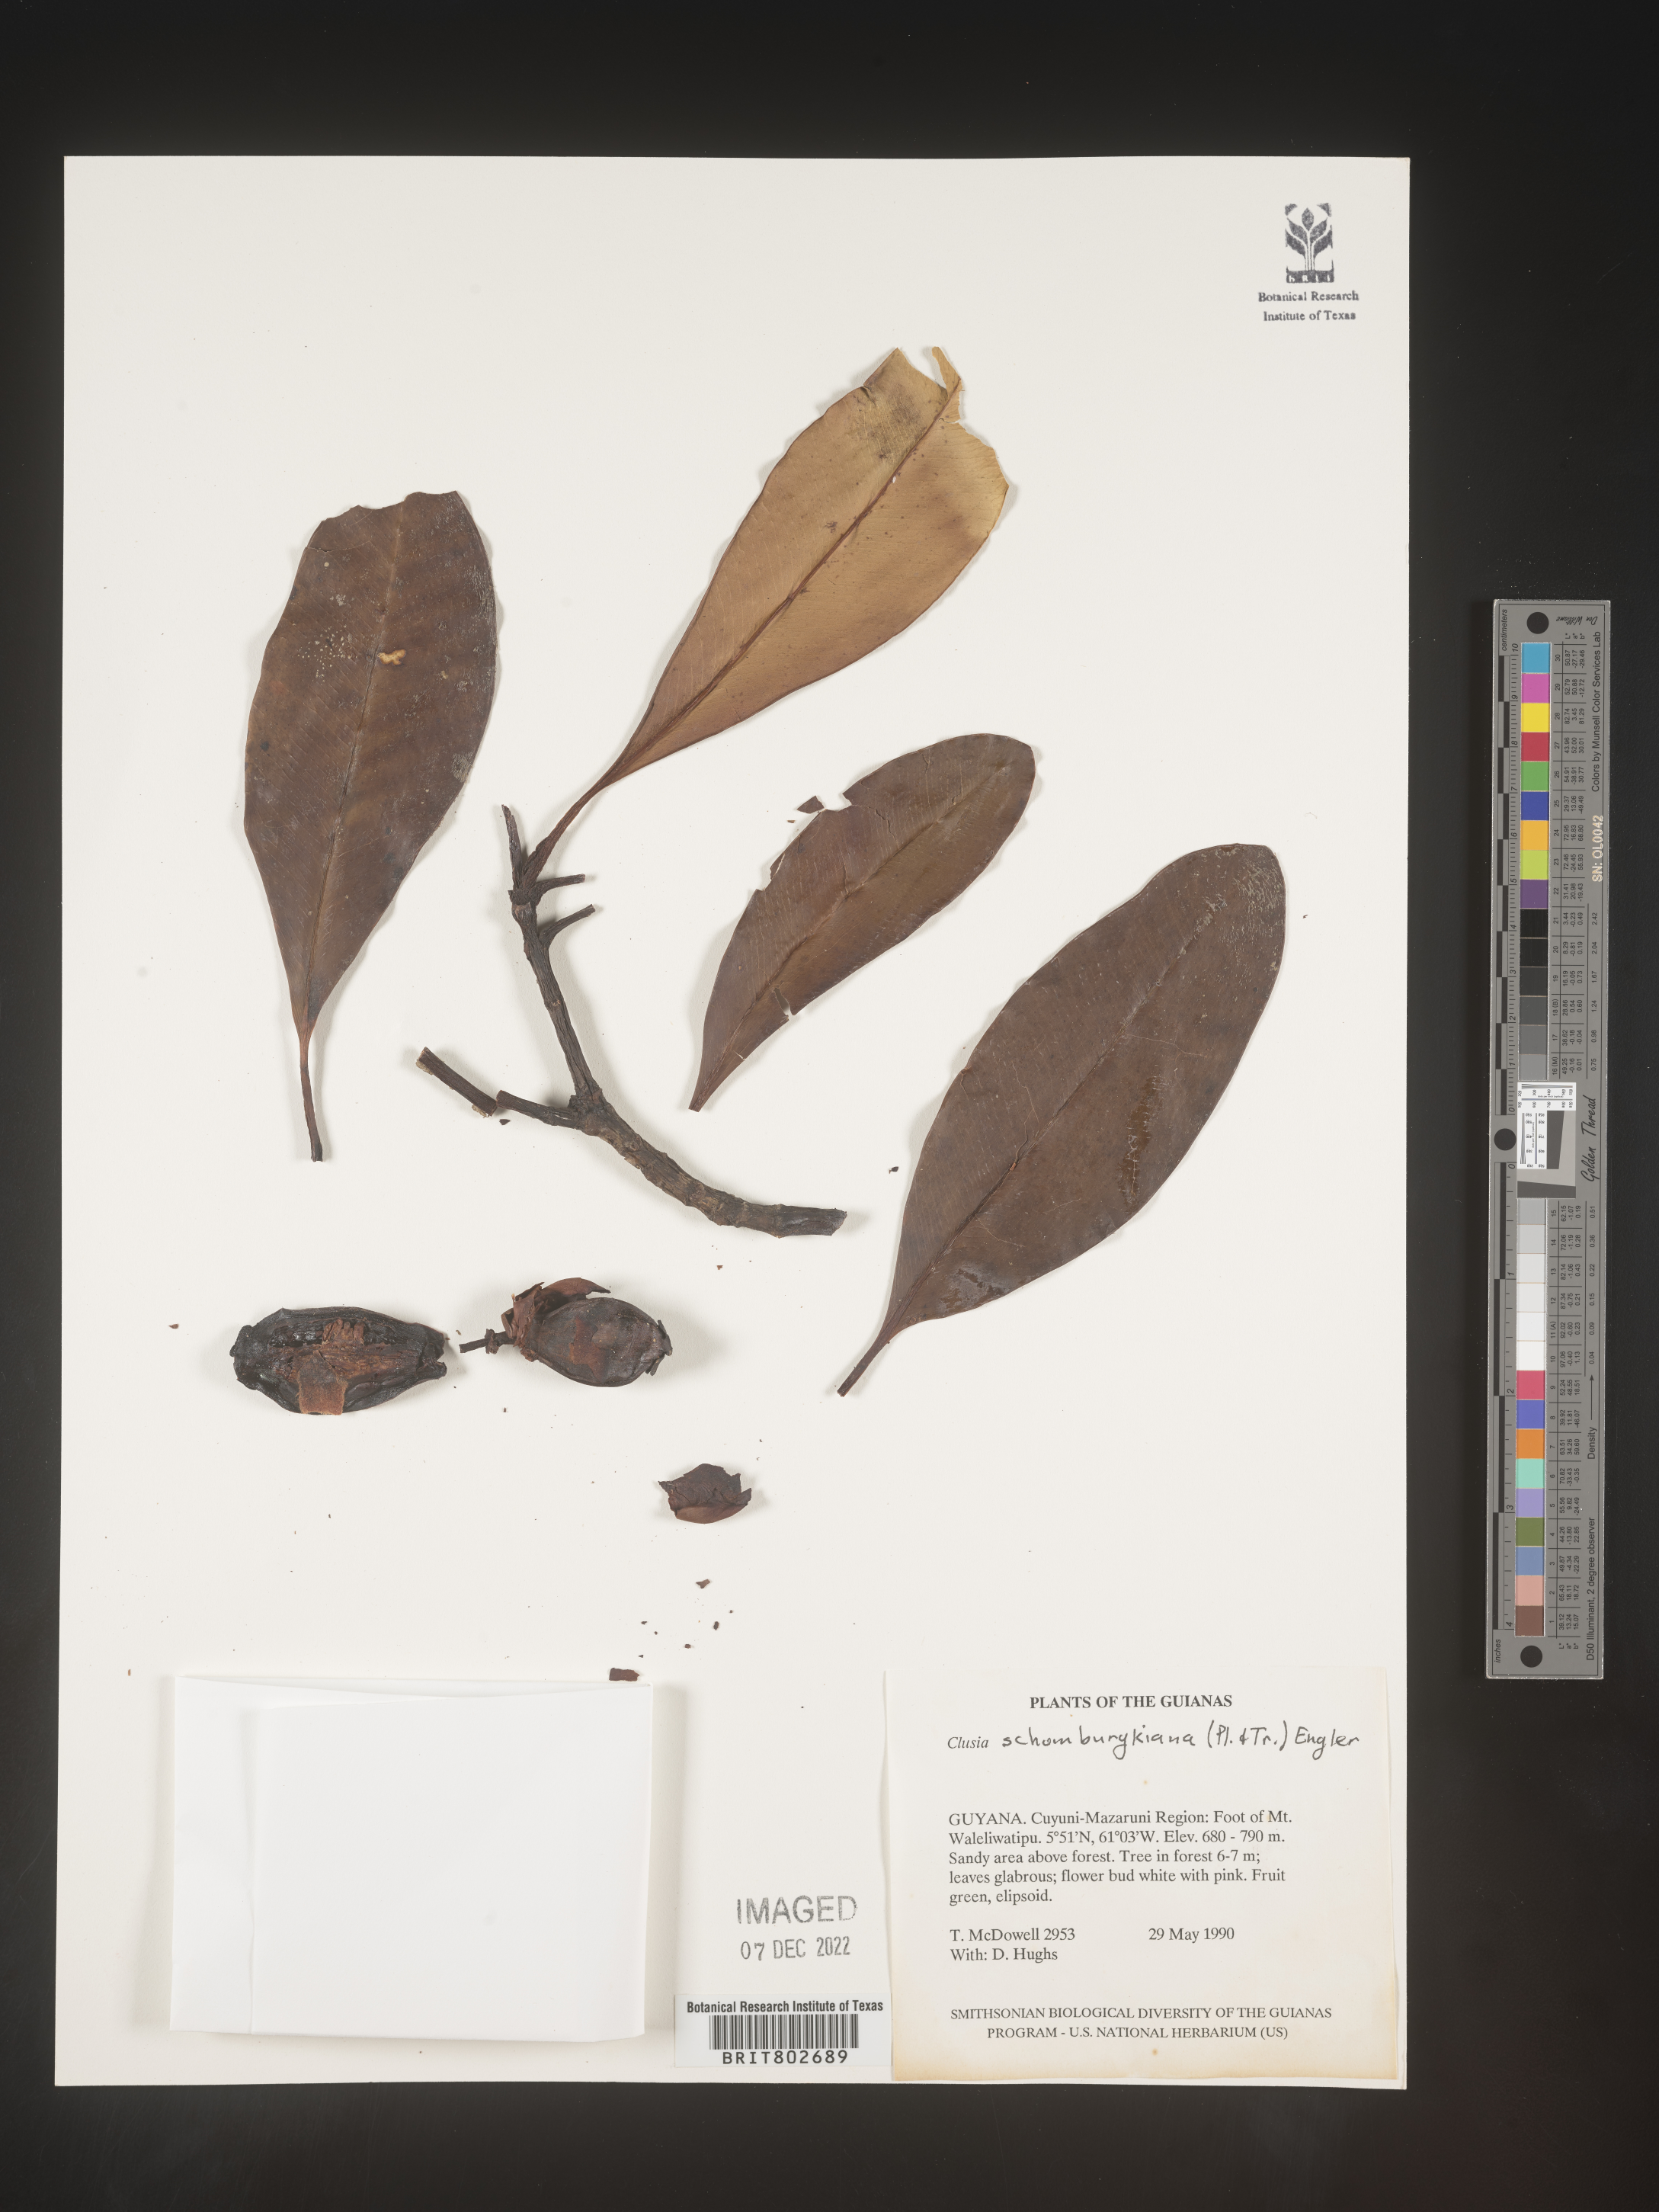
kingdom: Plantae
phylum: Tracheophyta
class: Magnoliopsida
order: Malpighiales
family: Clusiaceae
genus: Clusia
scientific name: Clusia schomburgkiana
